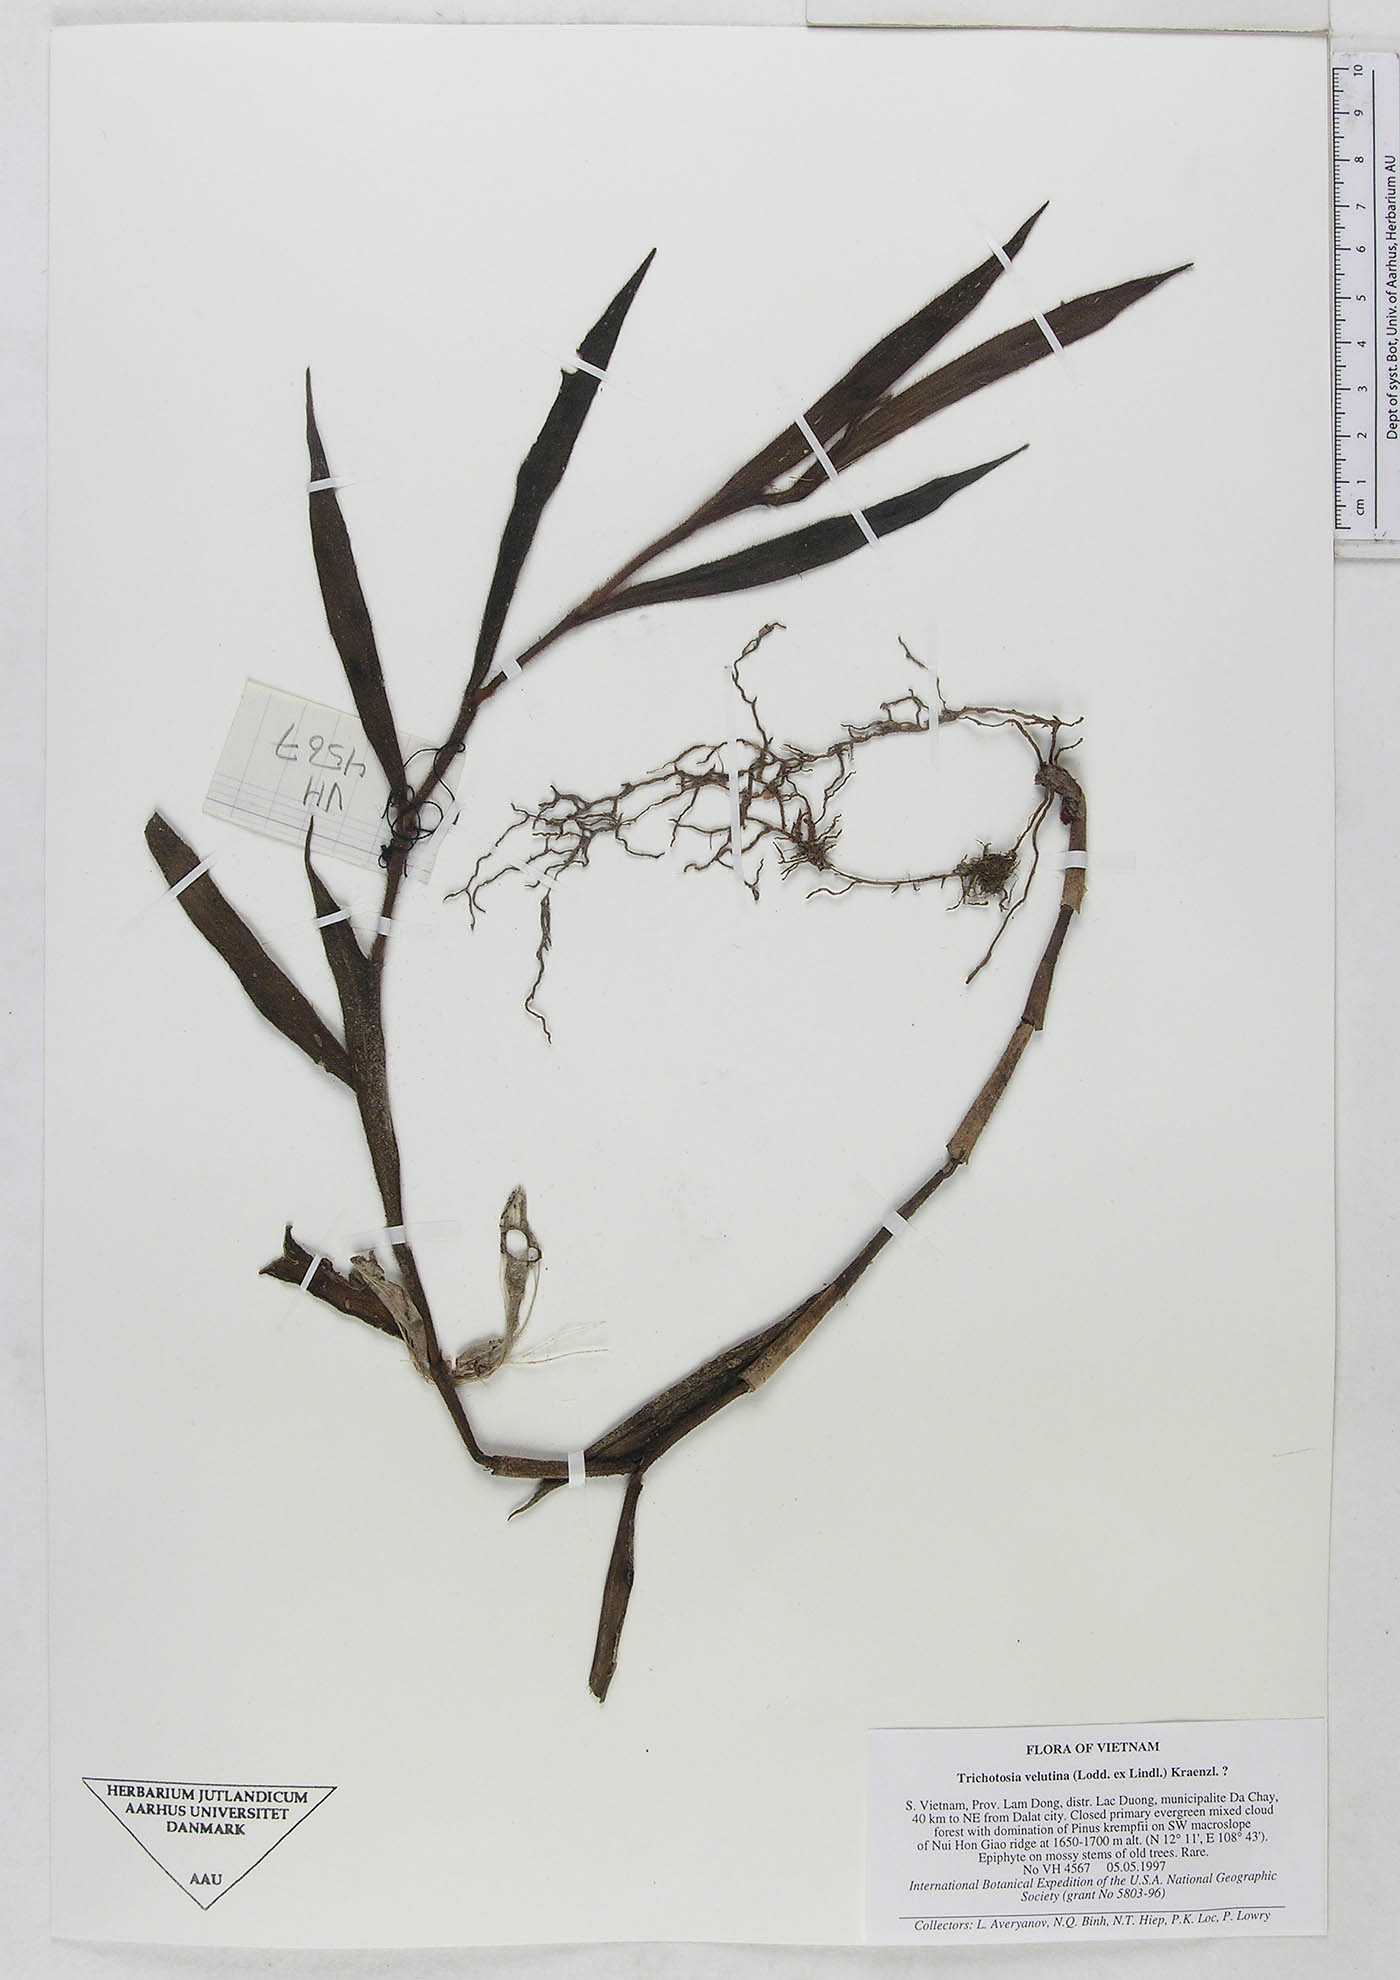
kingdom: Plantae
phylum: Tracheophyta
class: Liliopsida
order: Asparagales
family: Orchidaceae
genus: Trichotosia
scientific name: Trichotosia velutina
